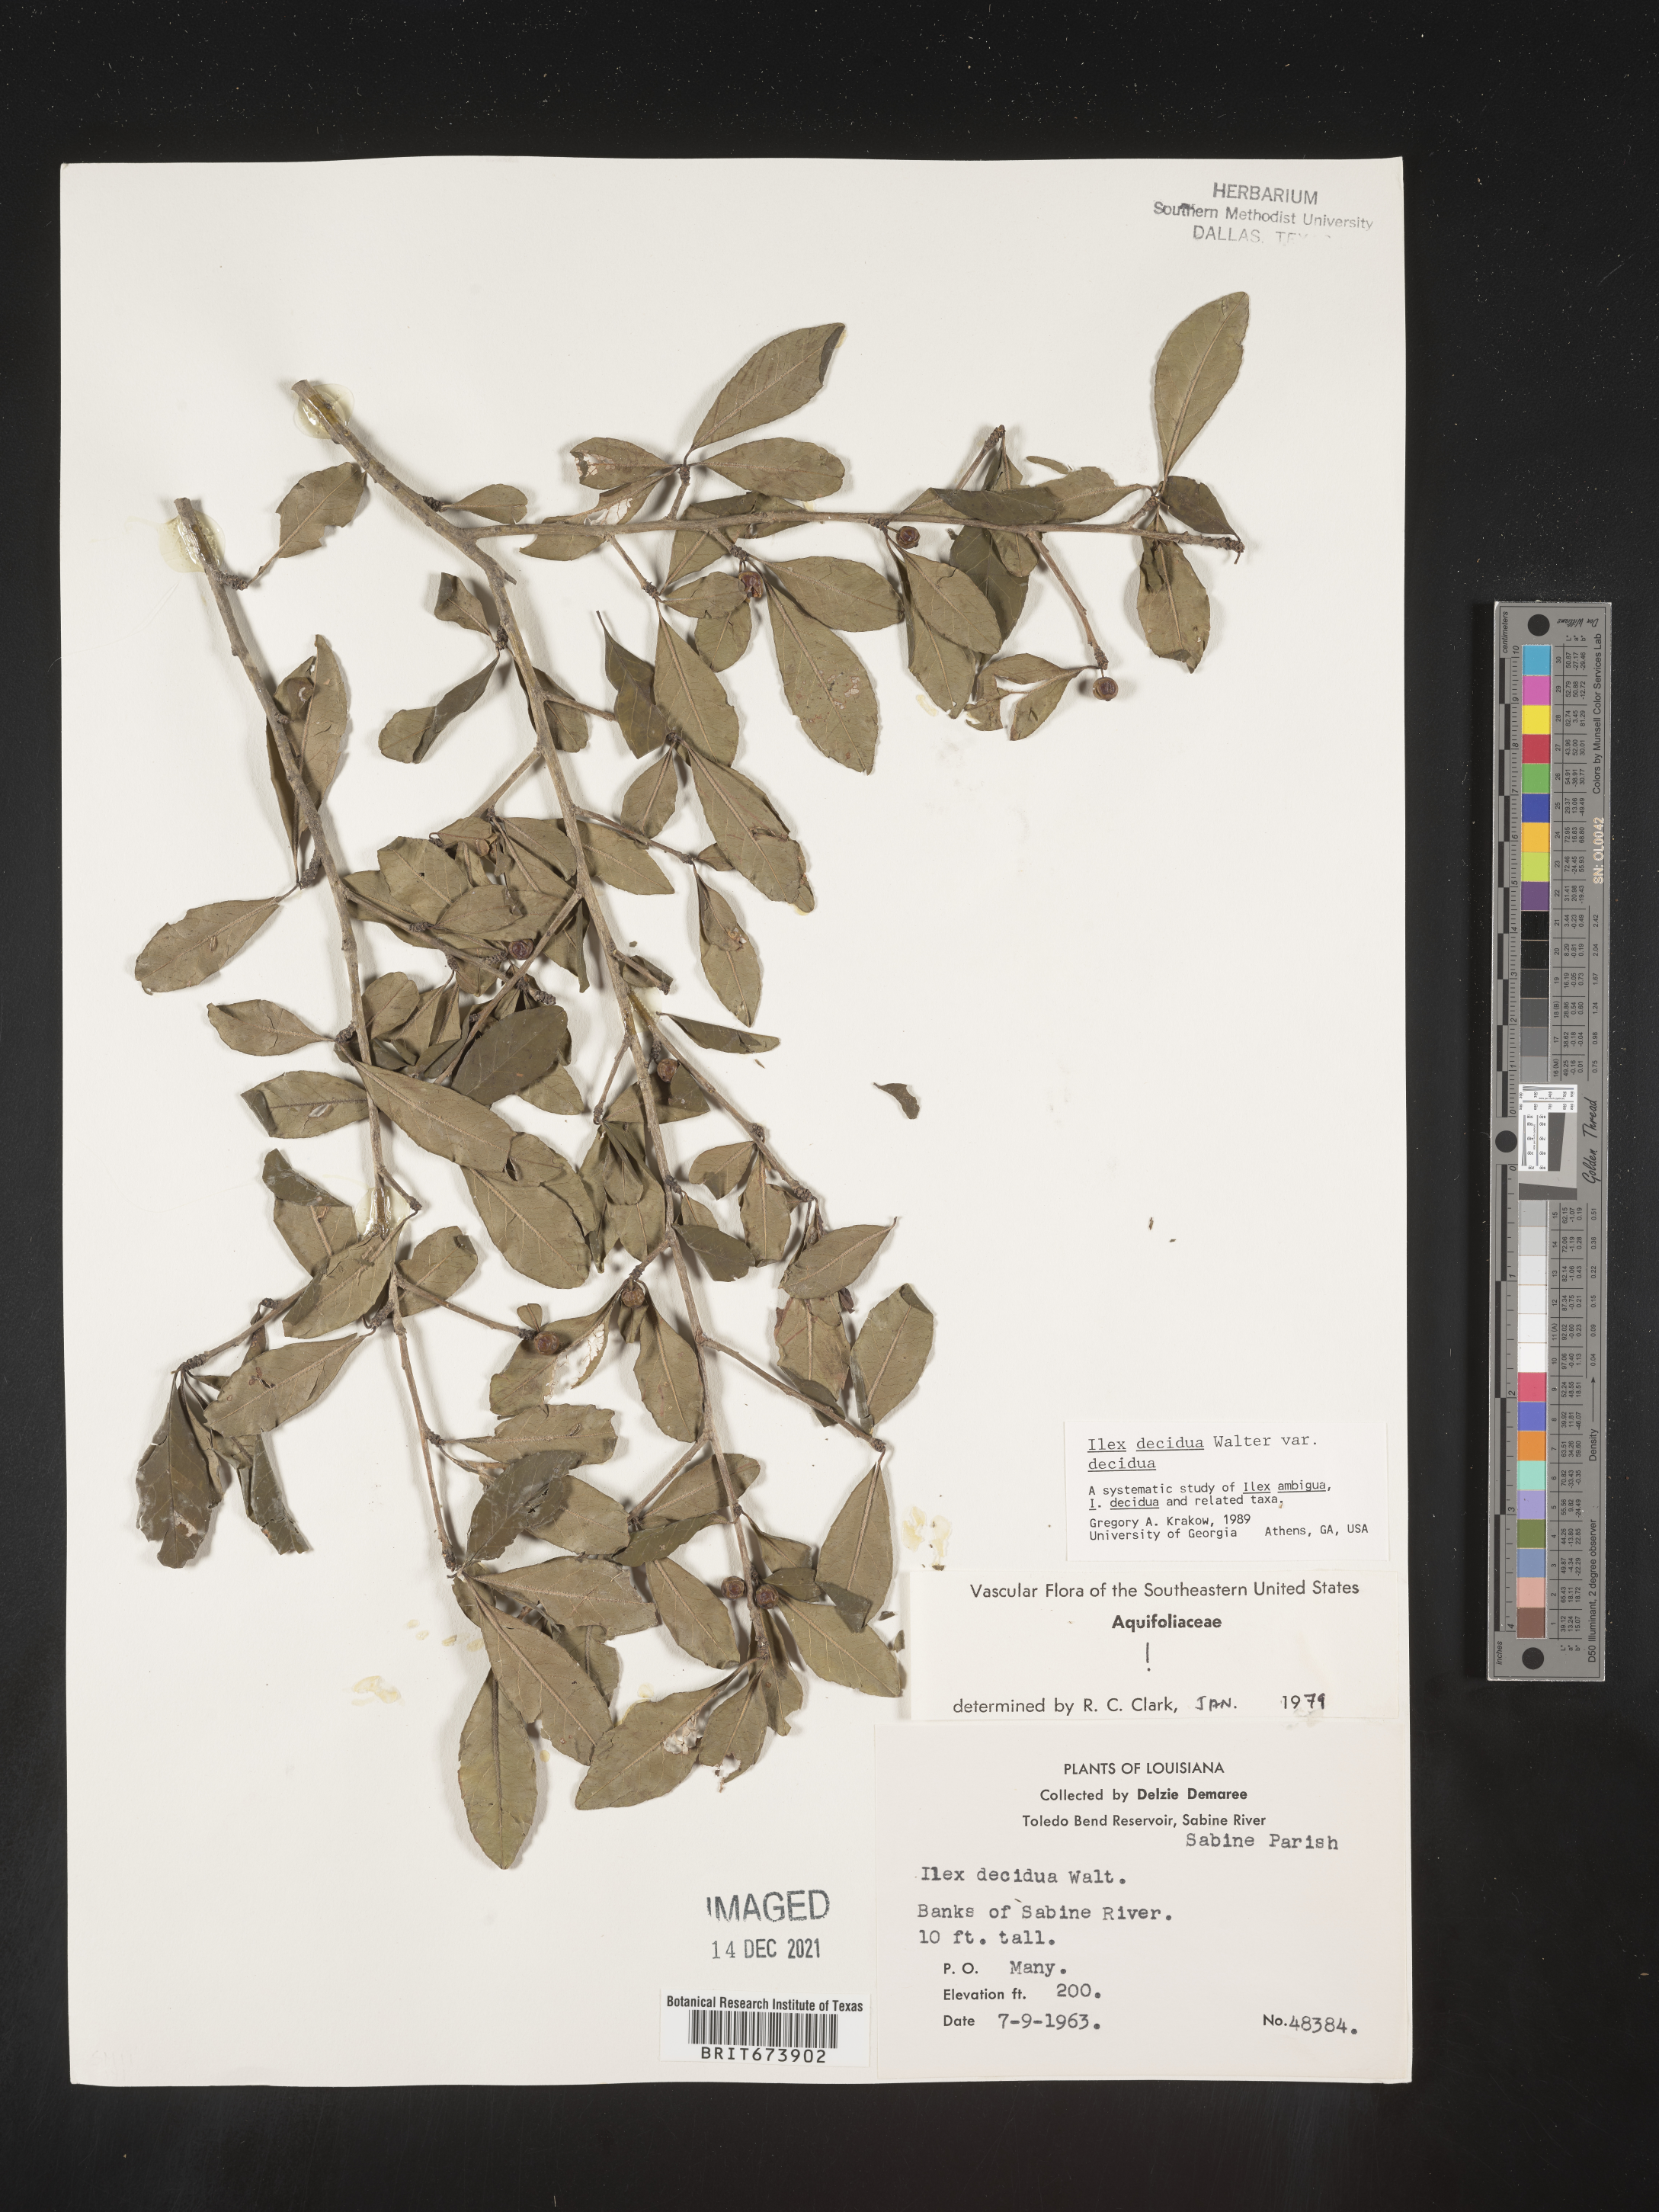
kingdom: Plantae
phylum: Tracheophyta
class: Magnoliopsida
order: Aquifoliales
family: Aquifoliaceae
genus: Ilex
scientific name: Ilex decidua
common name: Possum-haw
